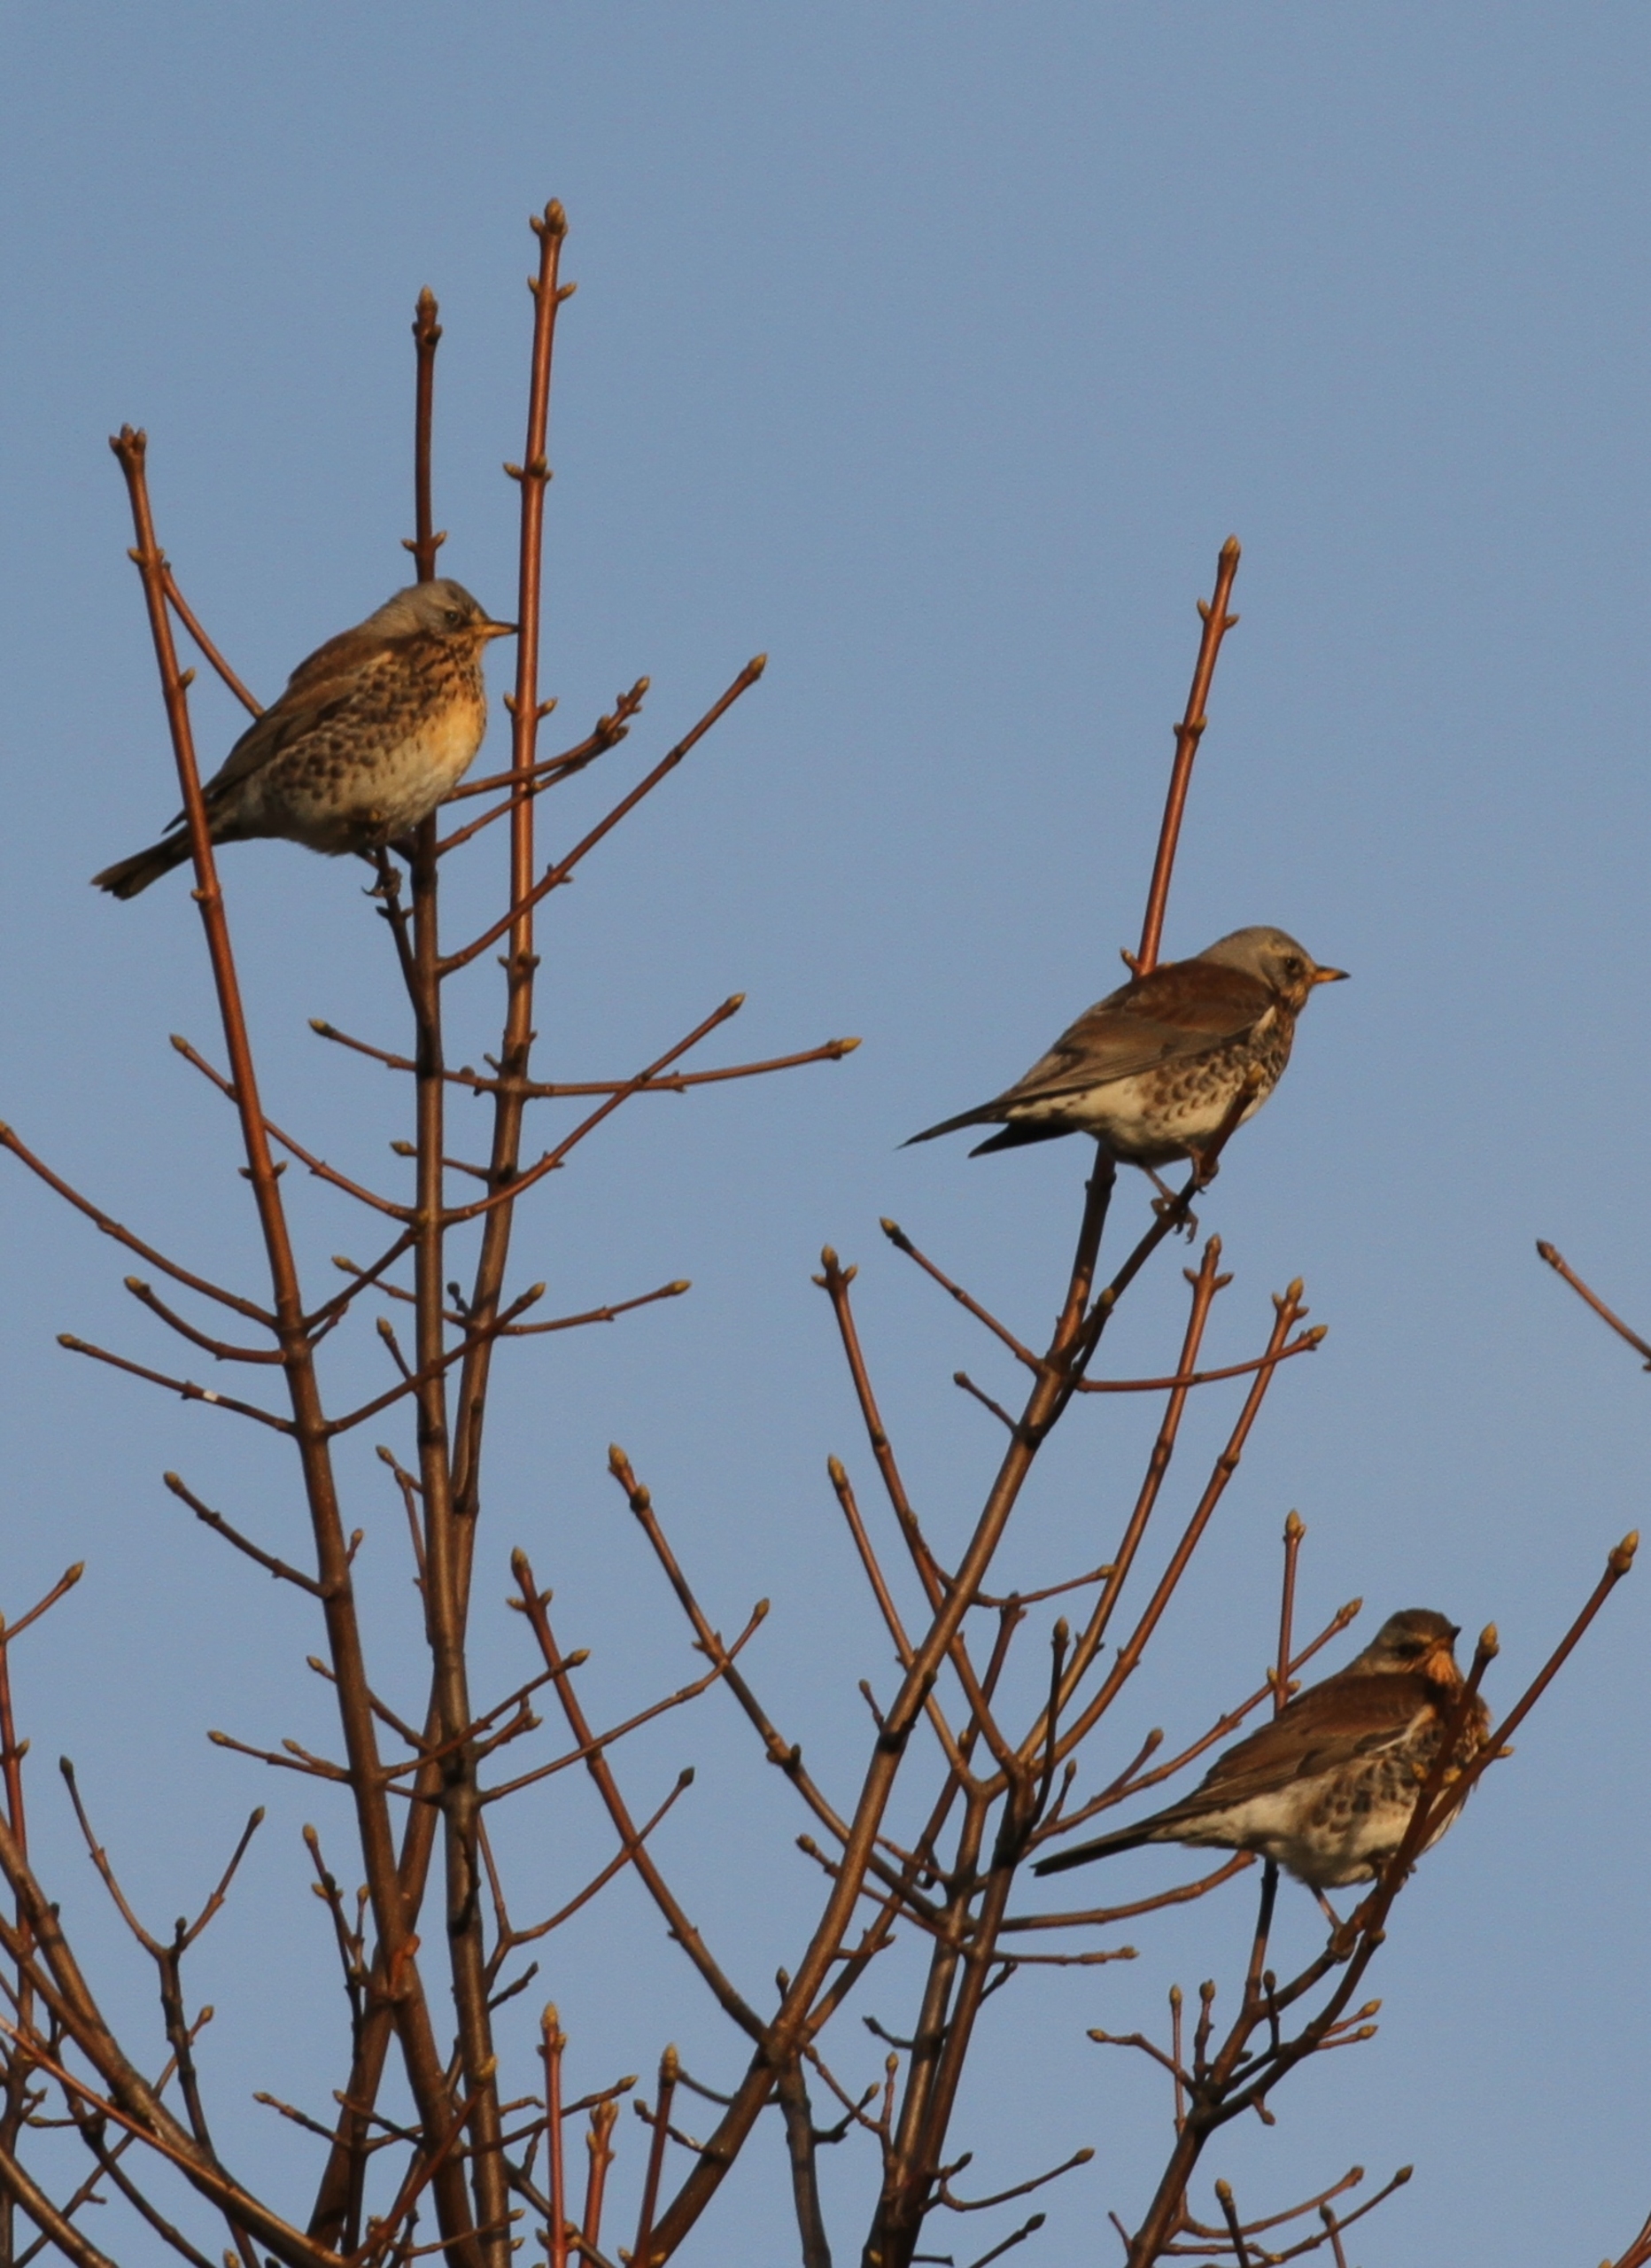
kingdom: Animalia
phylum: Chordata
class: Aves
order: Passeriformes
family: Turdidae
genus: Turdus
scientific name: Turdus pilaris
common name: Sjagger
